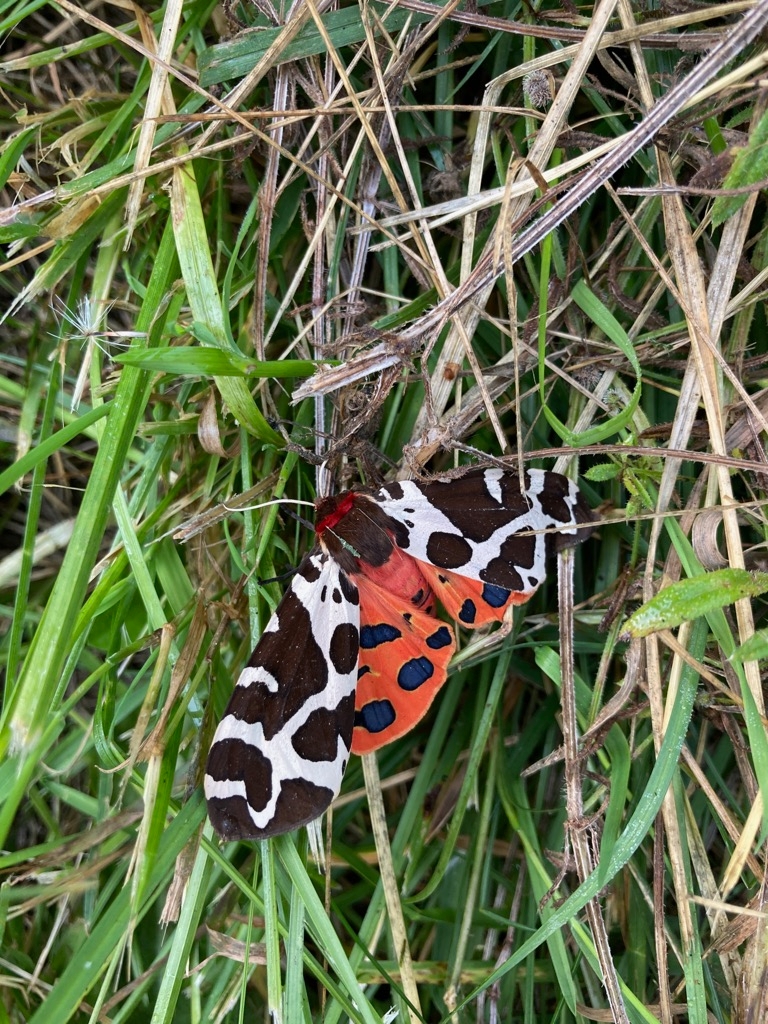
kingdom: Animalia
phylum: Arthropoda
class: Insecta
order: Lepidoptera
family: Erebidae
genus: Arctia
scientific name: Arctia caja
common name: Brun bjørn
